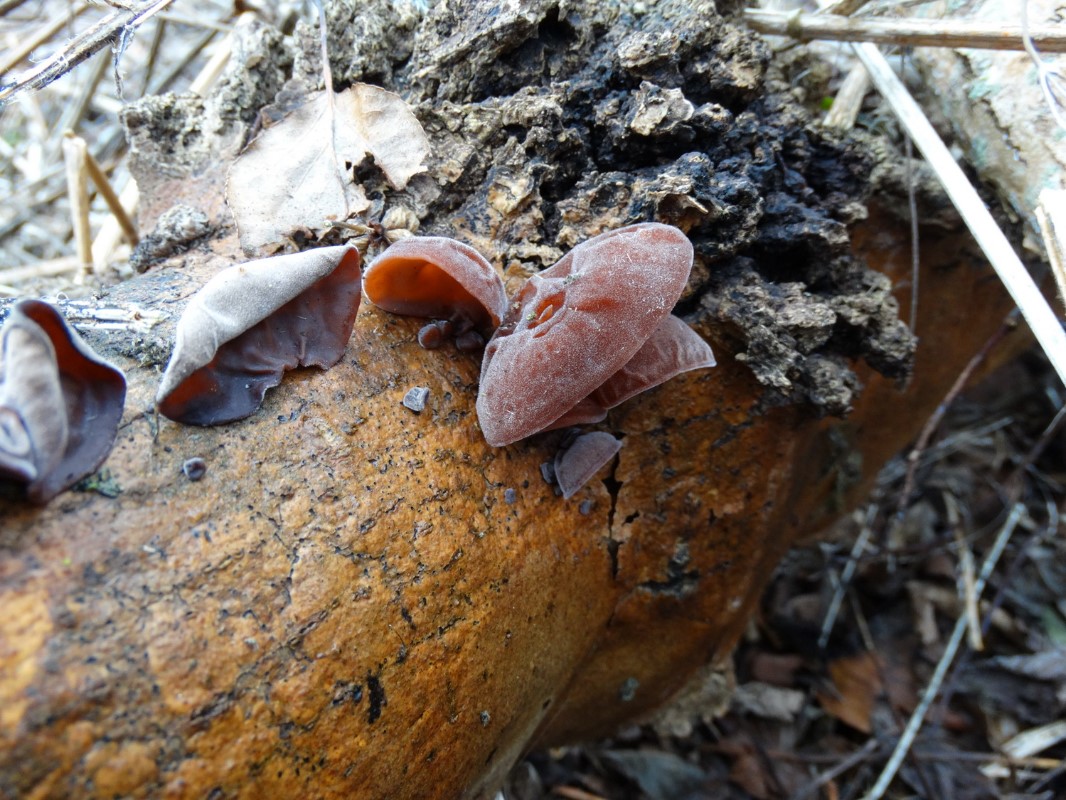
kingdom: Fungi
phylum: Basidiomycota
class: Agaricomycetes
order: Auriculariales
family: Auriculariaceae
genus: Auricularia
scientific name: Auricularia auricula-judae
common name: almindelig judasøre
